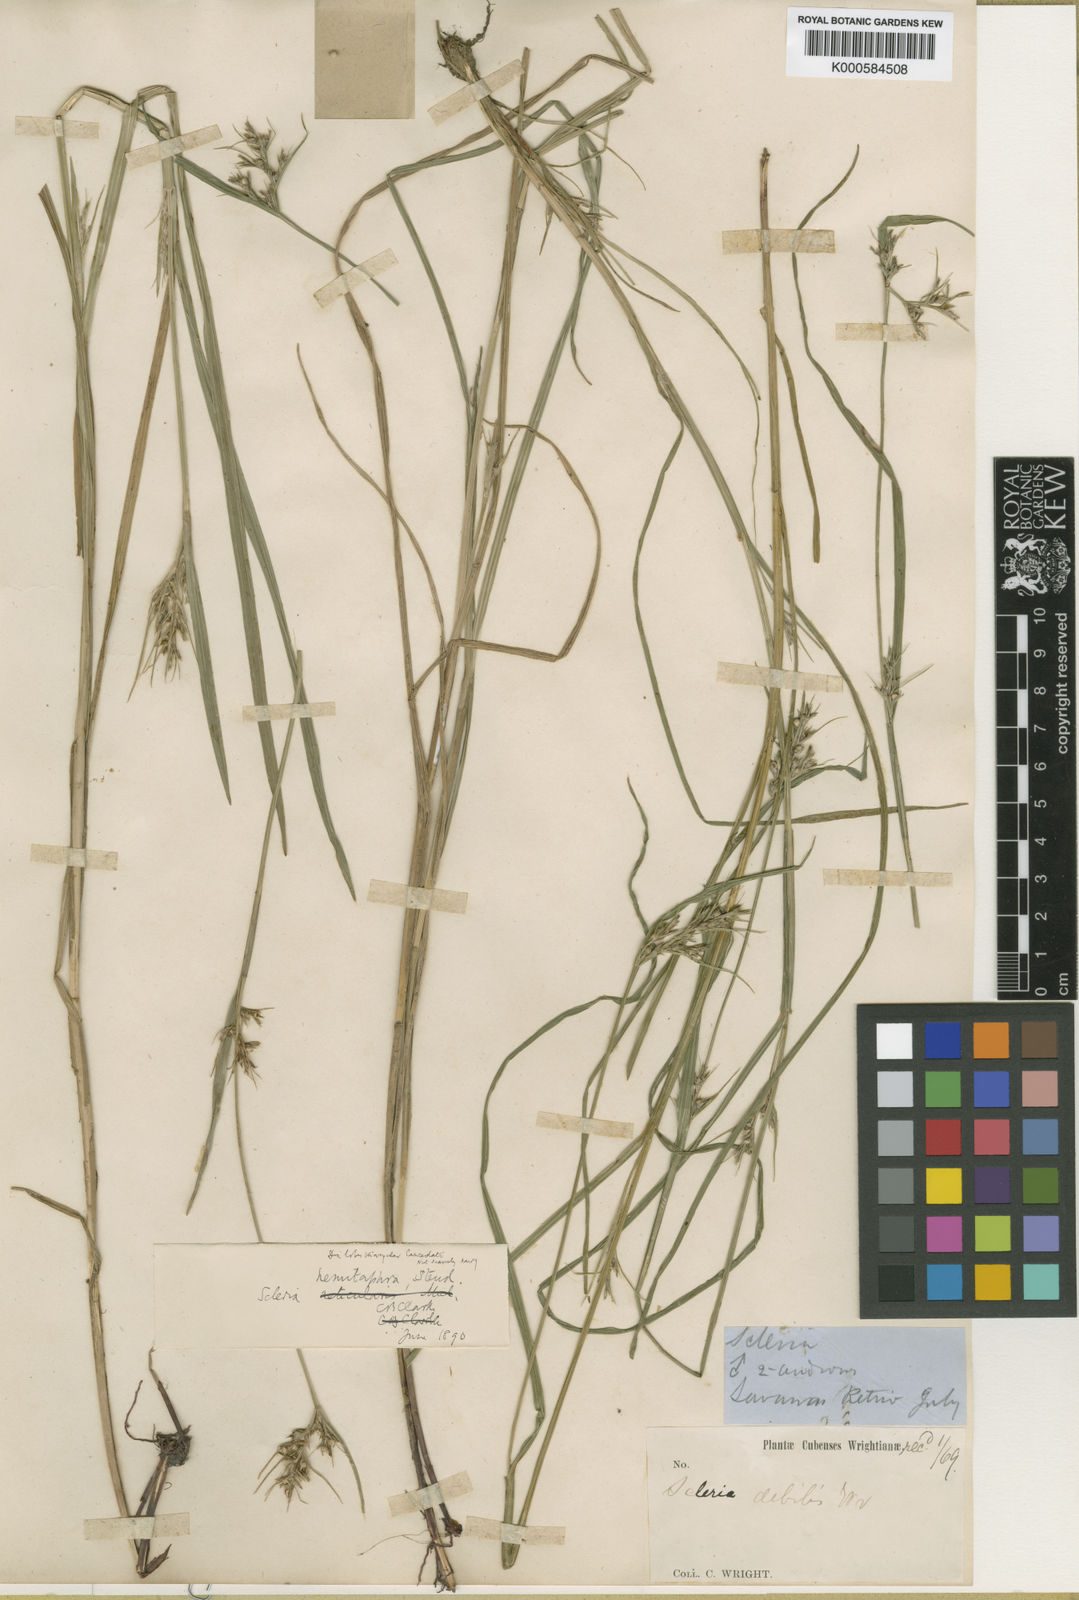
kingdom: Plantae
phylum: Tracheophyta
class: Liliopsida
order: Poales
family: Cyperaceae
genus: Scleria
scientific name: Scleria muehlenbergii
